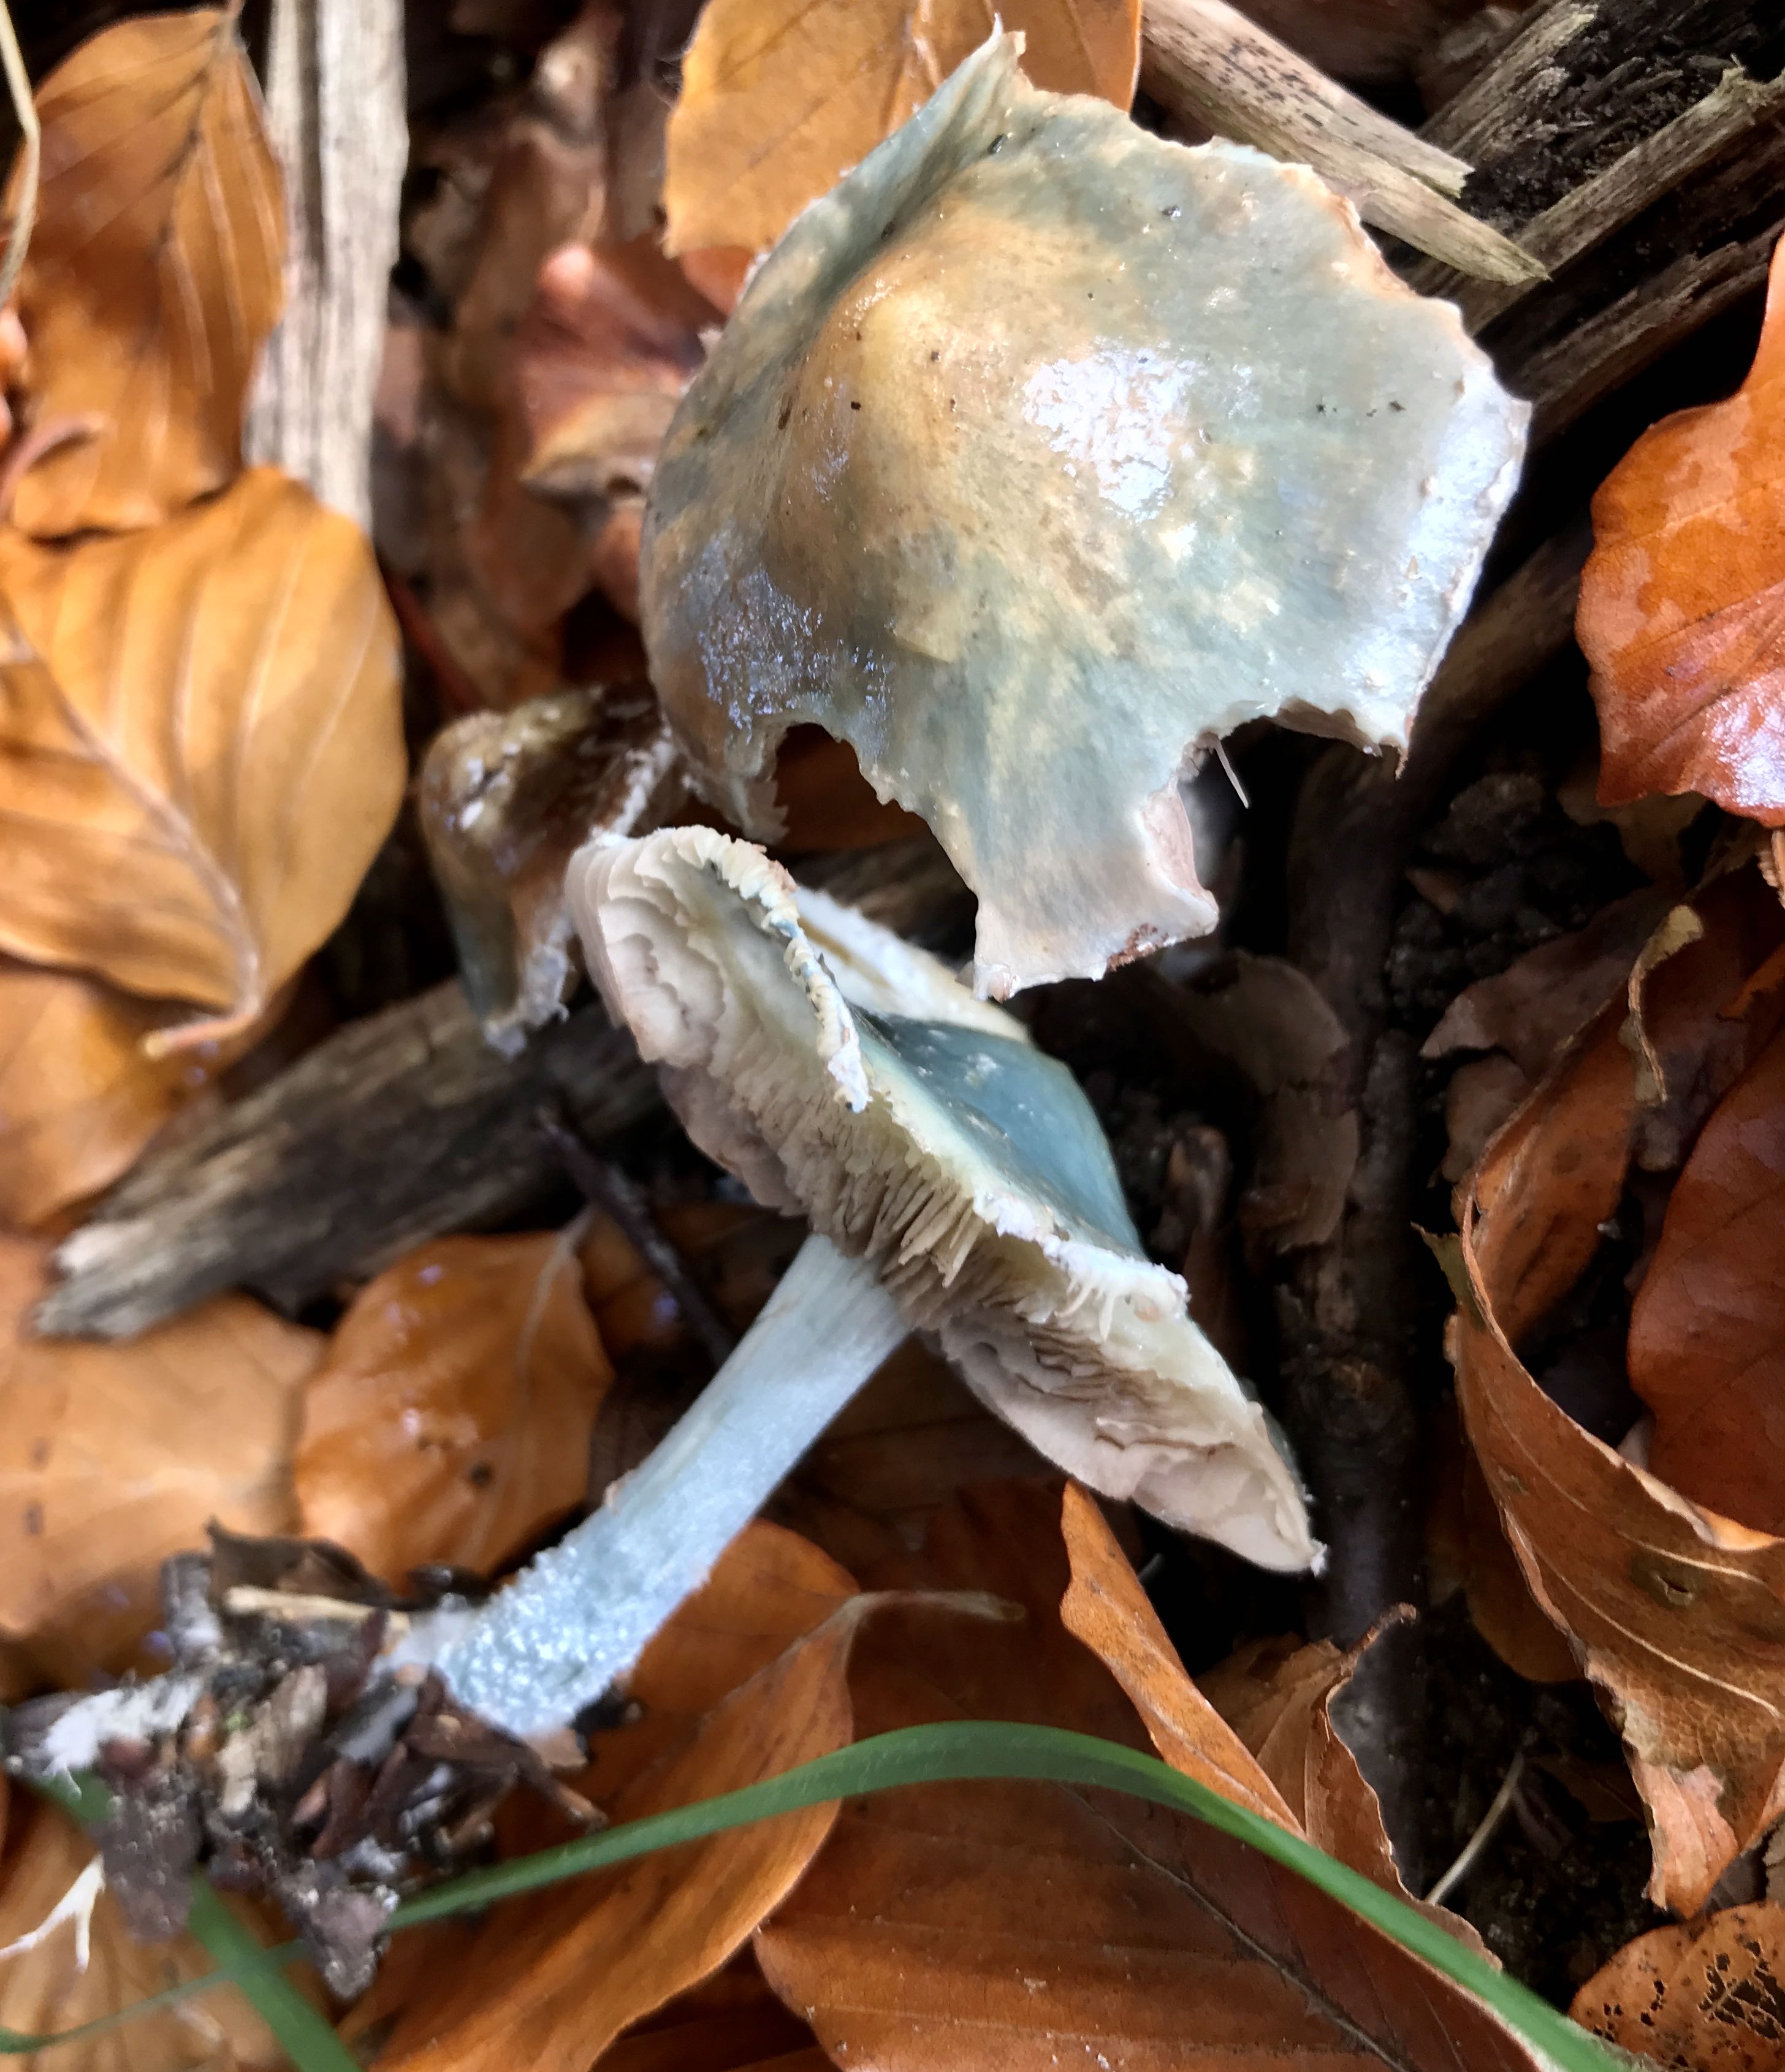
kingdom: Fungi
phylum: Basidiomycota
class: Agaricomycetes
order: Agaricales
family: Strophariaceae
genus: Stropharia
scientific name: Stropharia cyanea
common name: blågrøn bredblad
